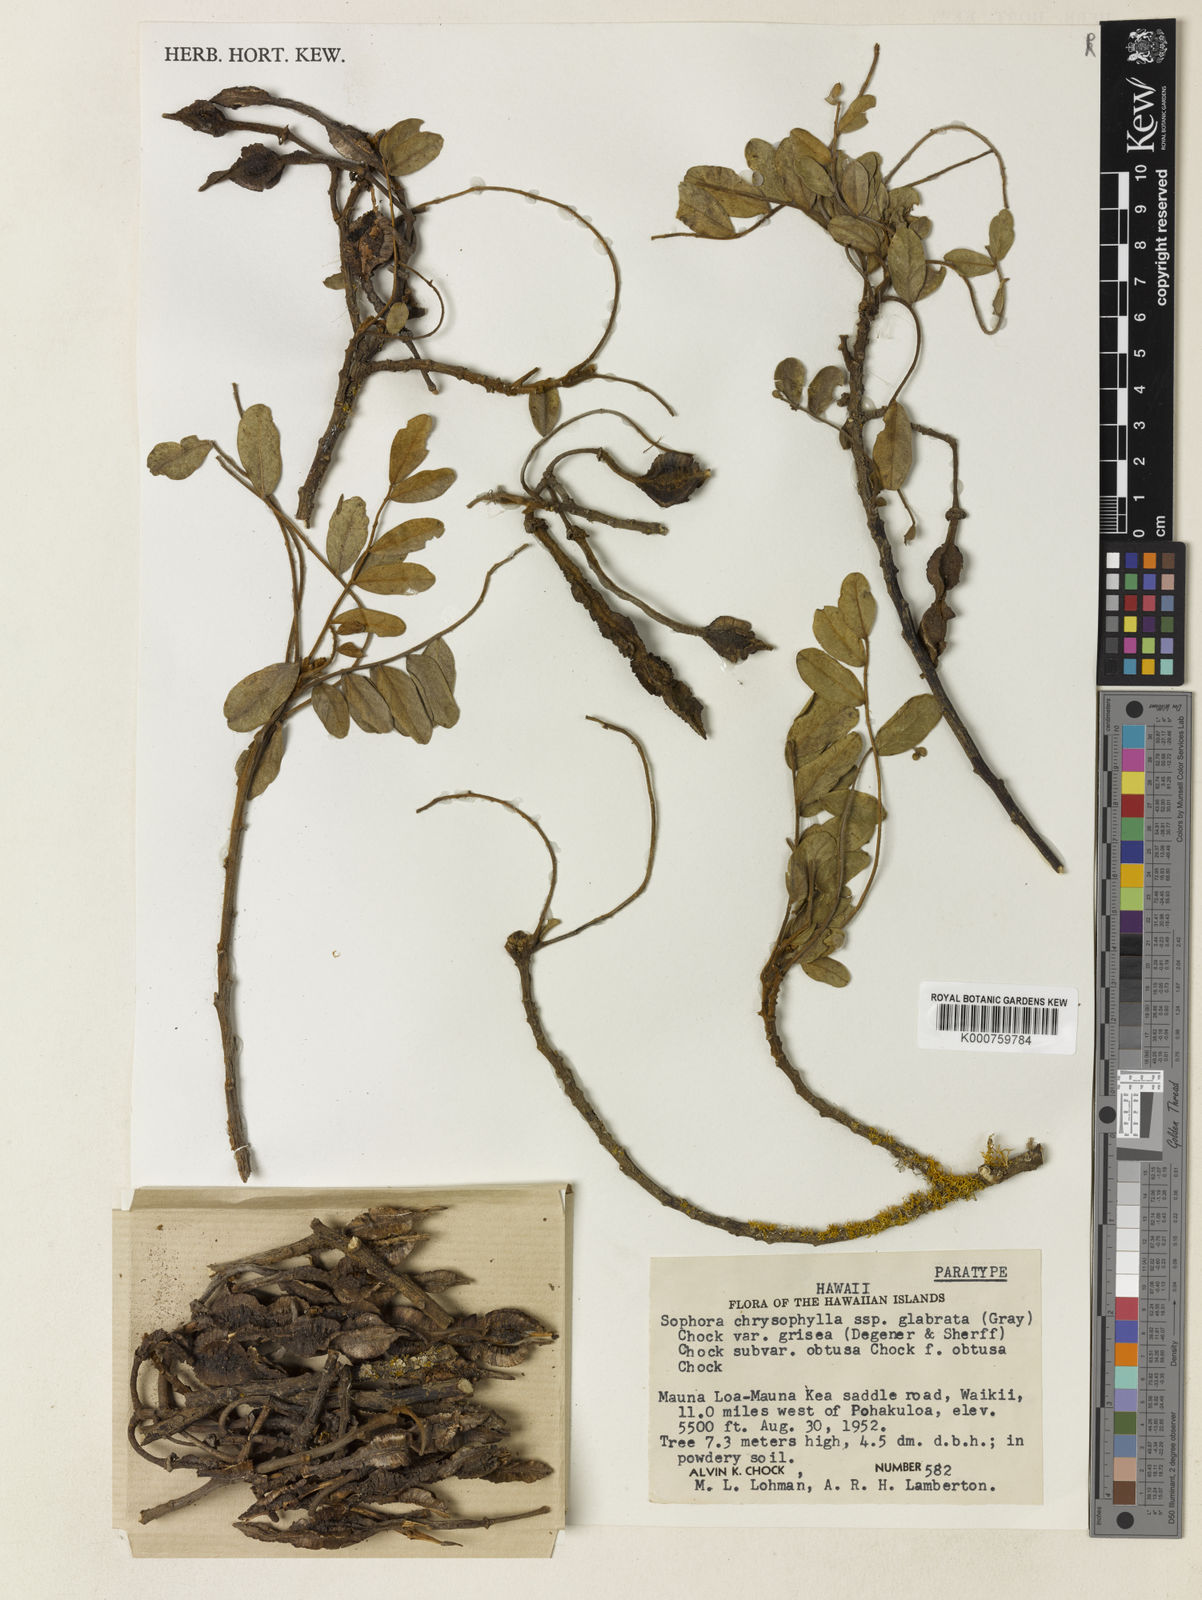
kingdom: Plantae
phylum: Tracheophyta
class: Magnoliopsida
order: Fabales
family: Fabaceae
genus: Sophora
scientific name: Sophora chrysophylla
